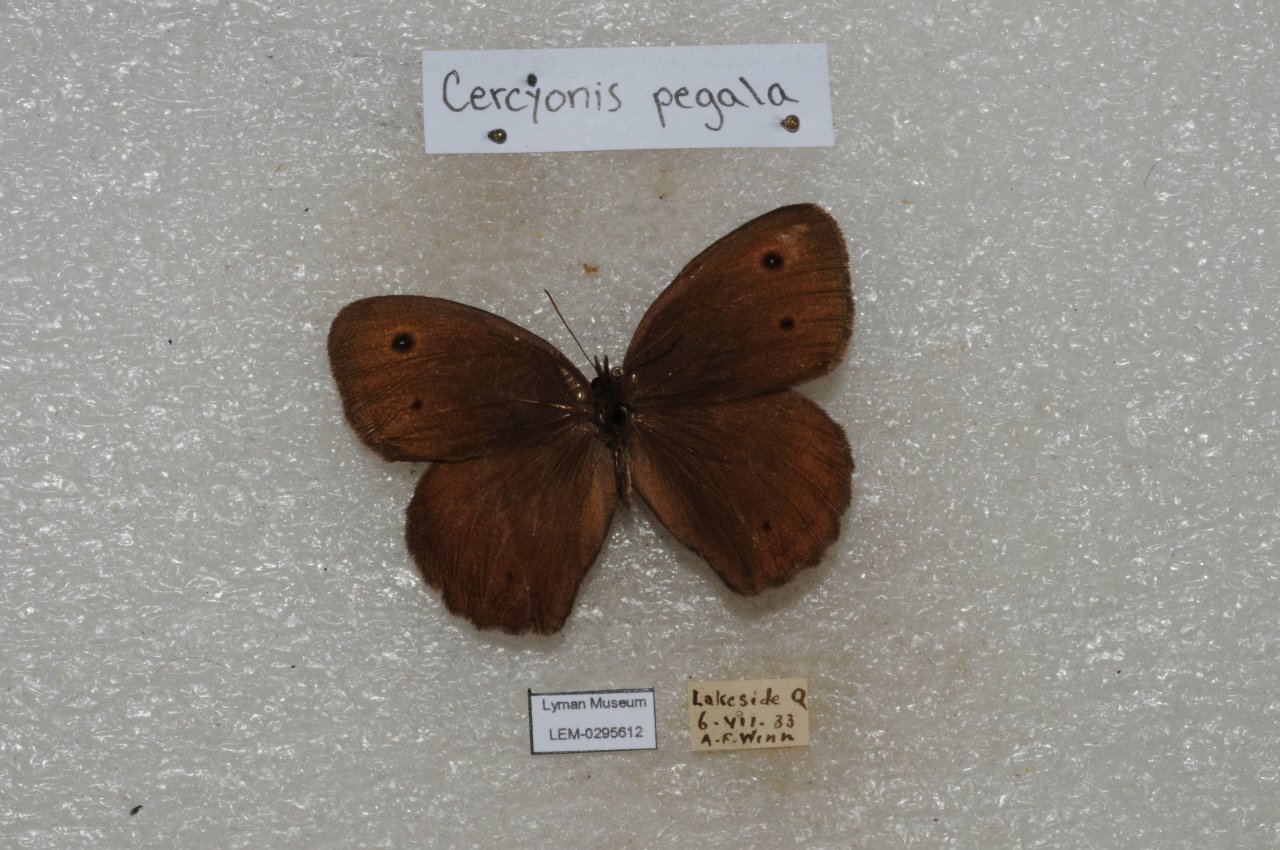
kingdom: Animalia
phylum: Arthropoda
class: Insecta
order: Lepidoptera
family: Nymphalidae
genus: Cercyonis
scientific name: Cercyonis pegala
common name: Common Wood-Nymph
